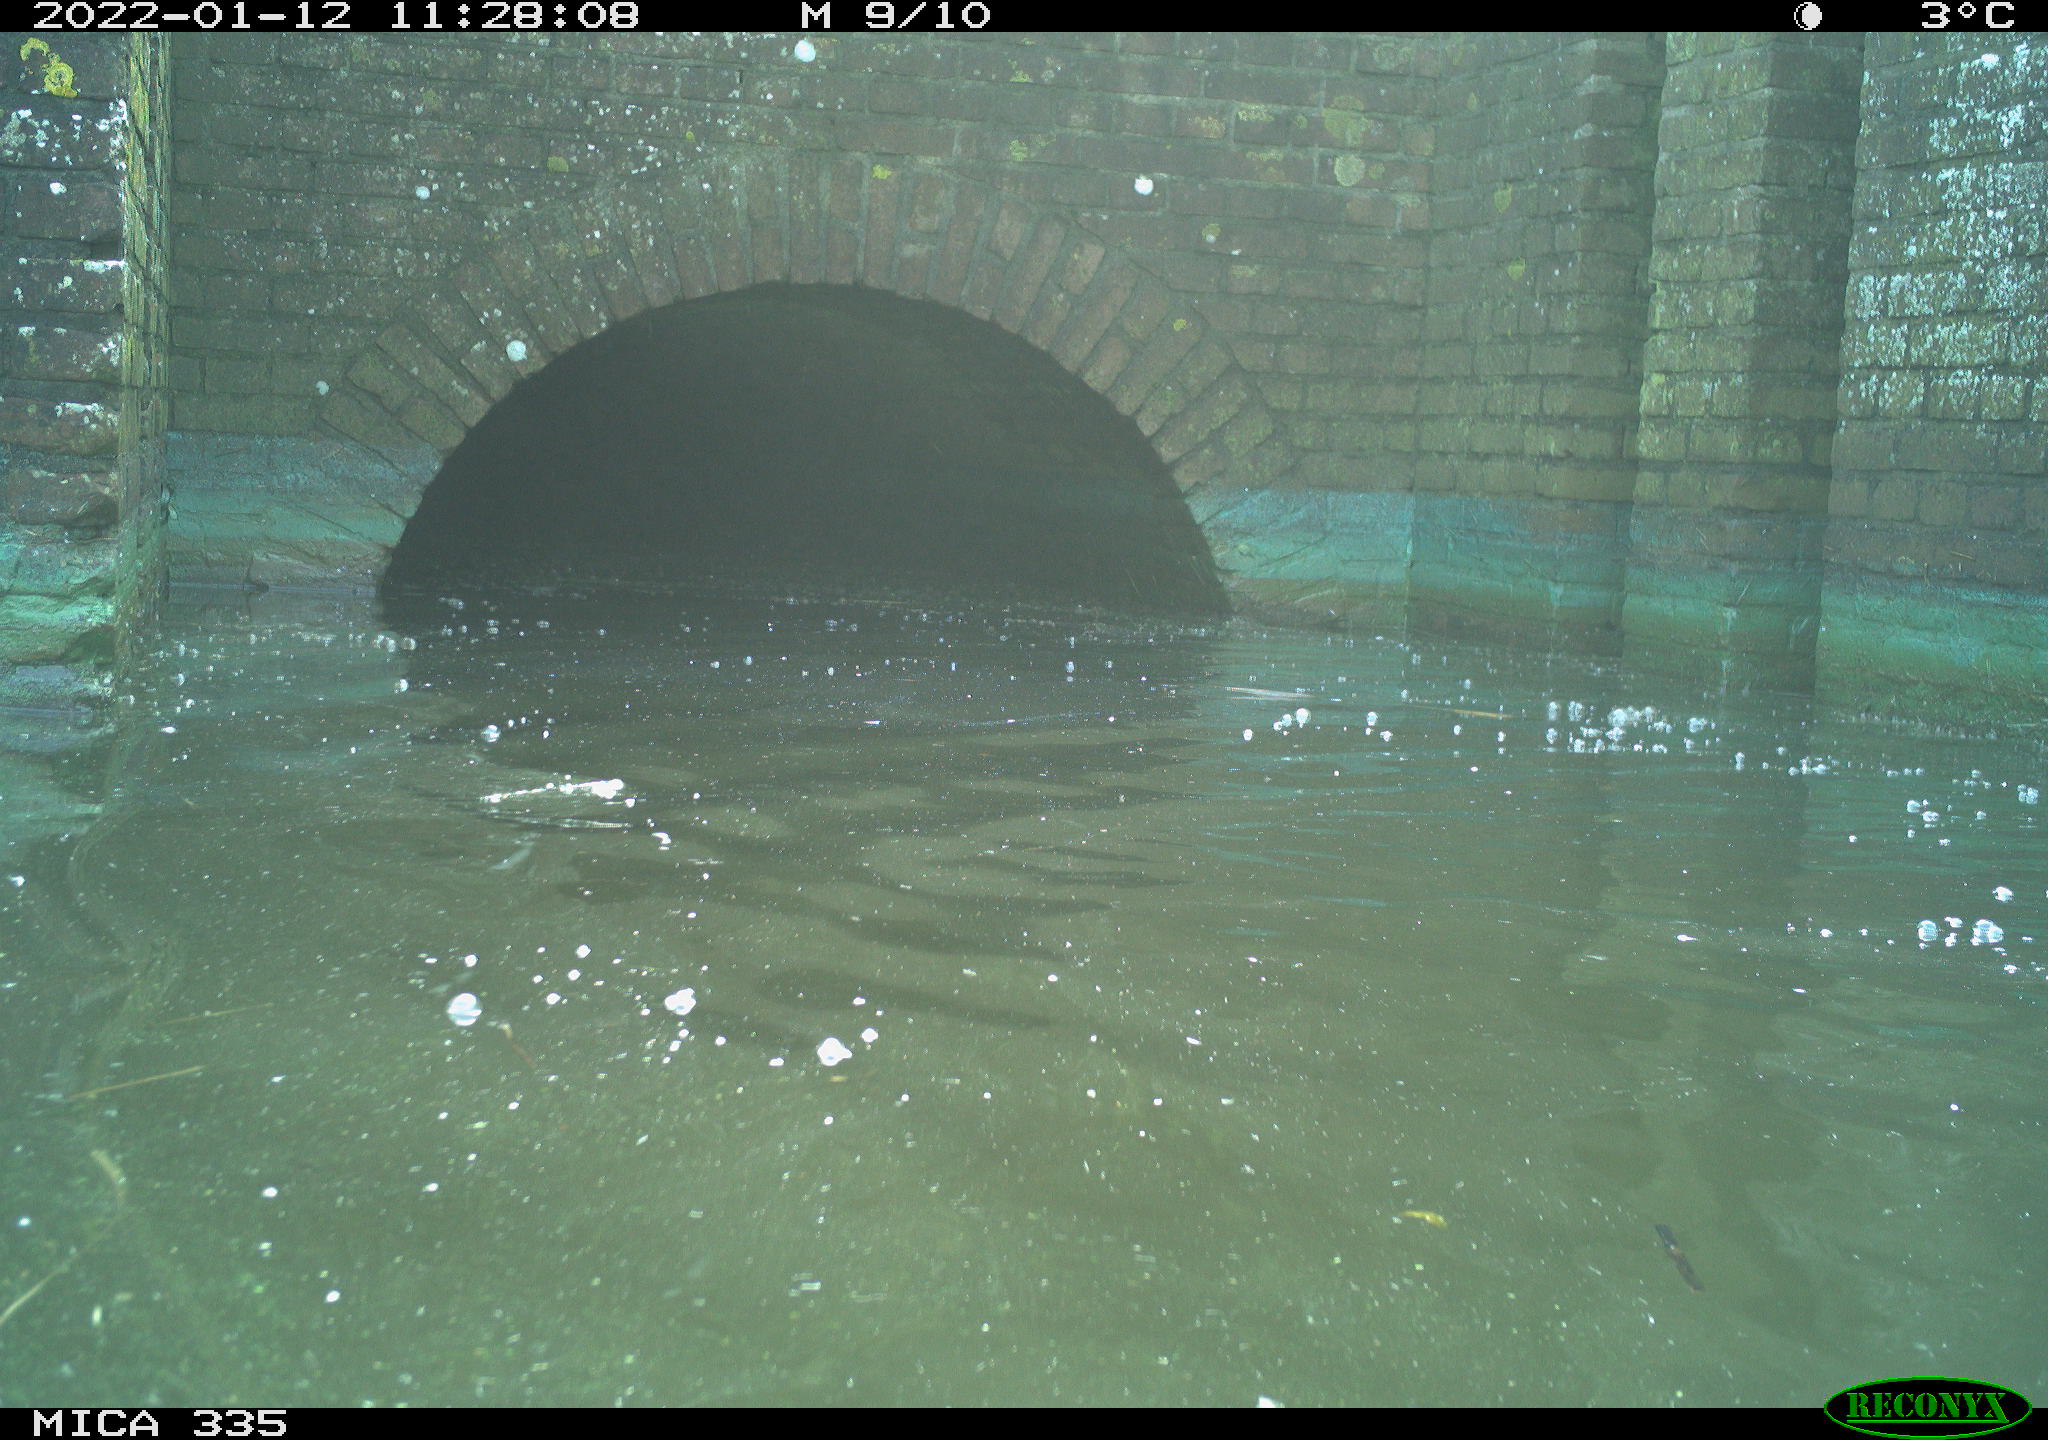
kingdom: Animalia
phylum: Chordata
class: Aves
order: Gruiformes
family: Rallidae
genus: Fulica
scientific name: Fulica atra
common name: Eurasian coot
